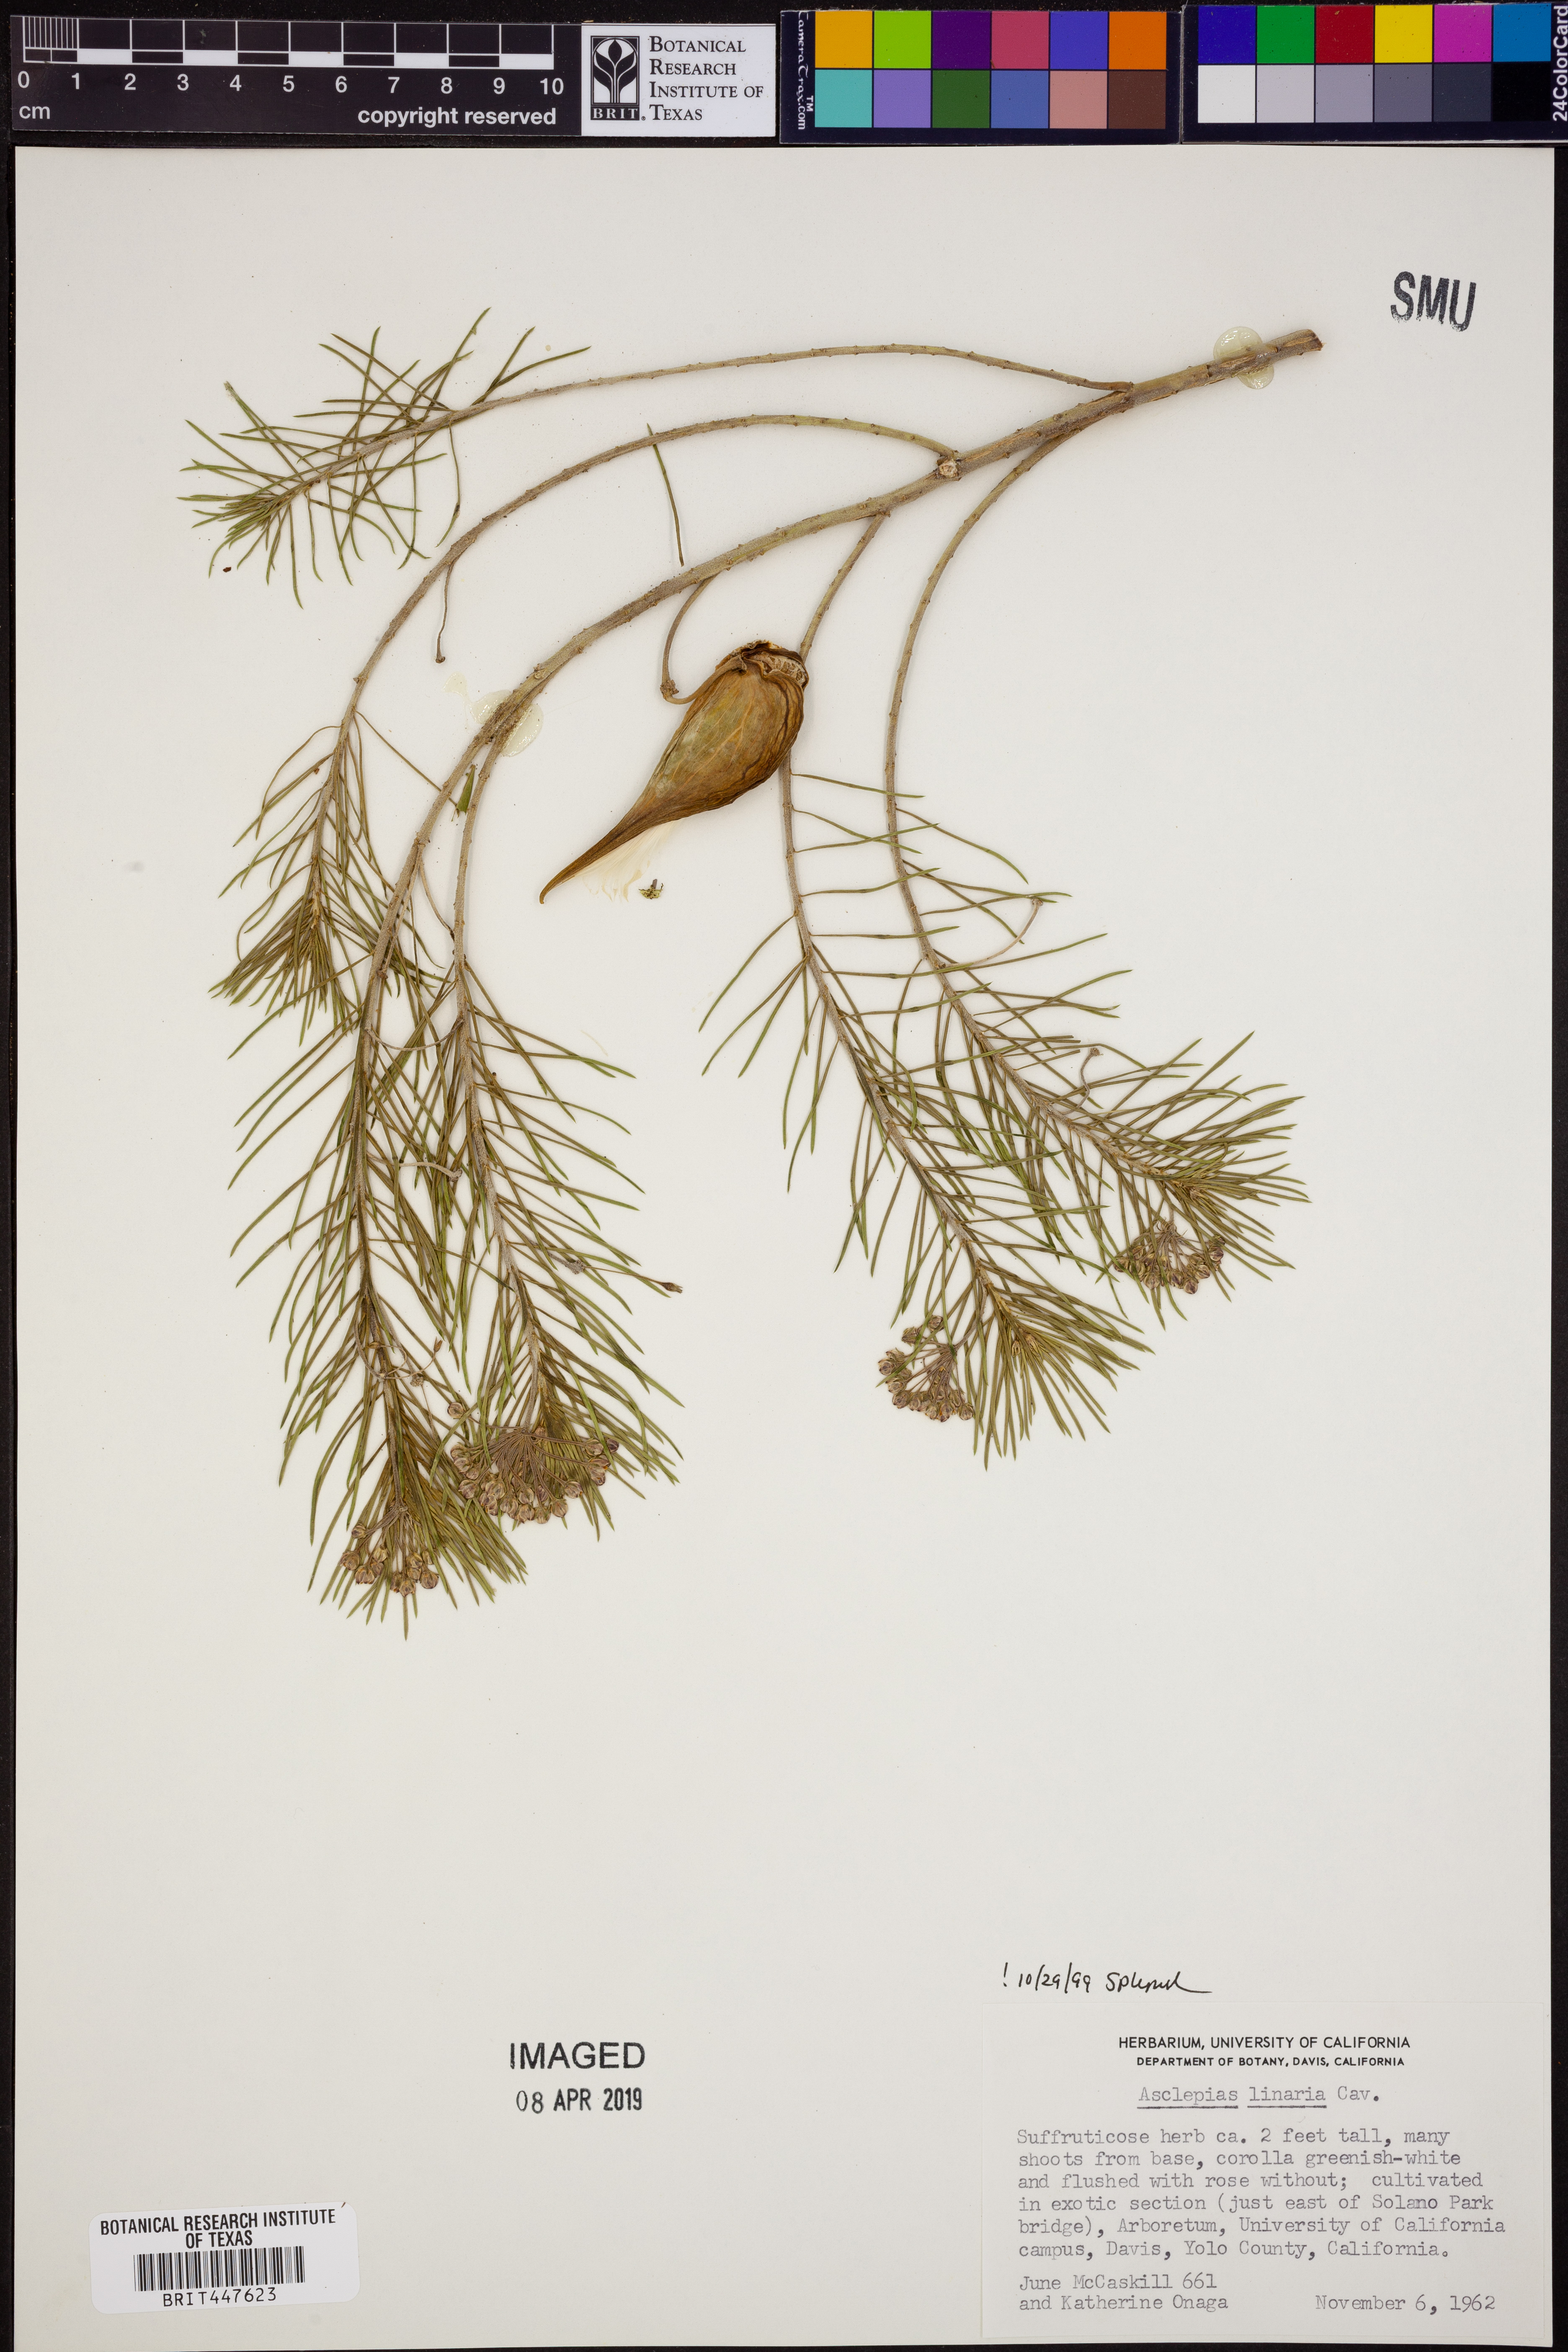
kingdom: Plantae
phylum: Tracheophyta
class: Magnoliopsida
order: Gentianales
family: Apocynaceae
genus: Asclepias
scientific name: Asclepias linaria
